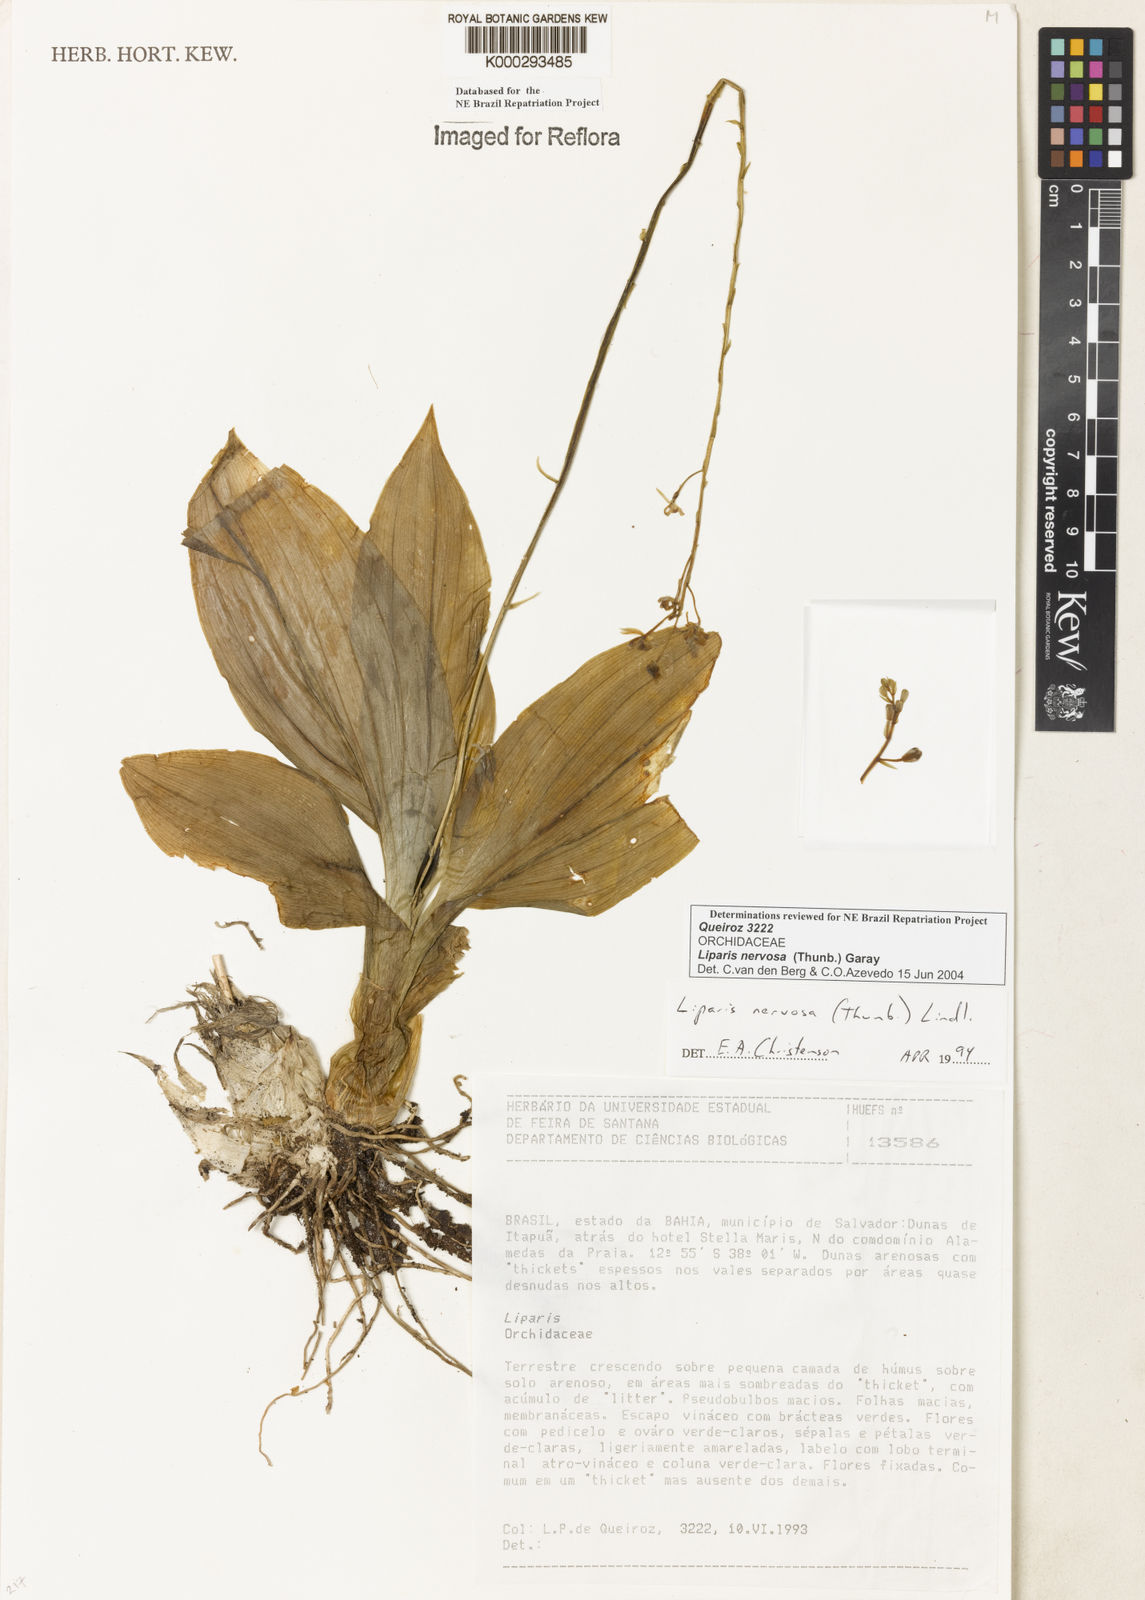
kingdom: Plantae
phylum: Tracheophyta
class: Liliopsida
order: Asparagales
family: Orchidaceae
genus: Liparis
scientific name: Liparis nervosa
